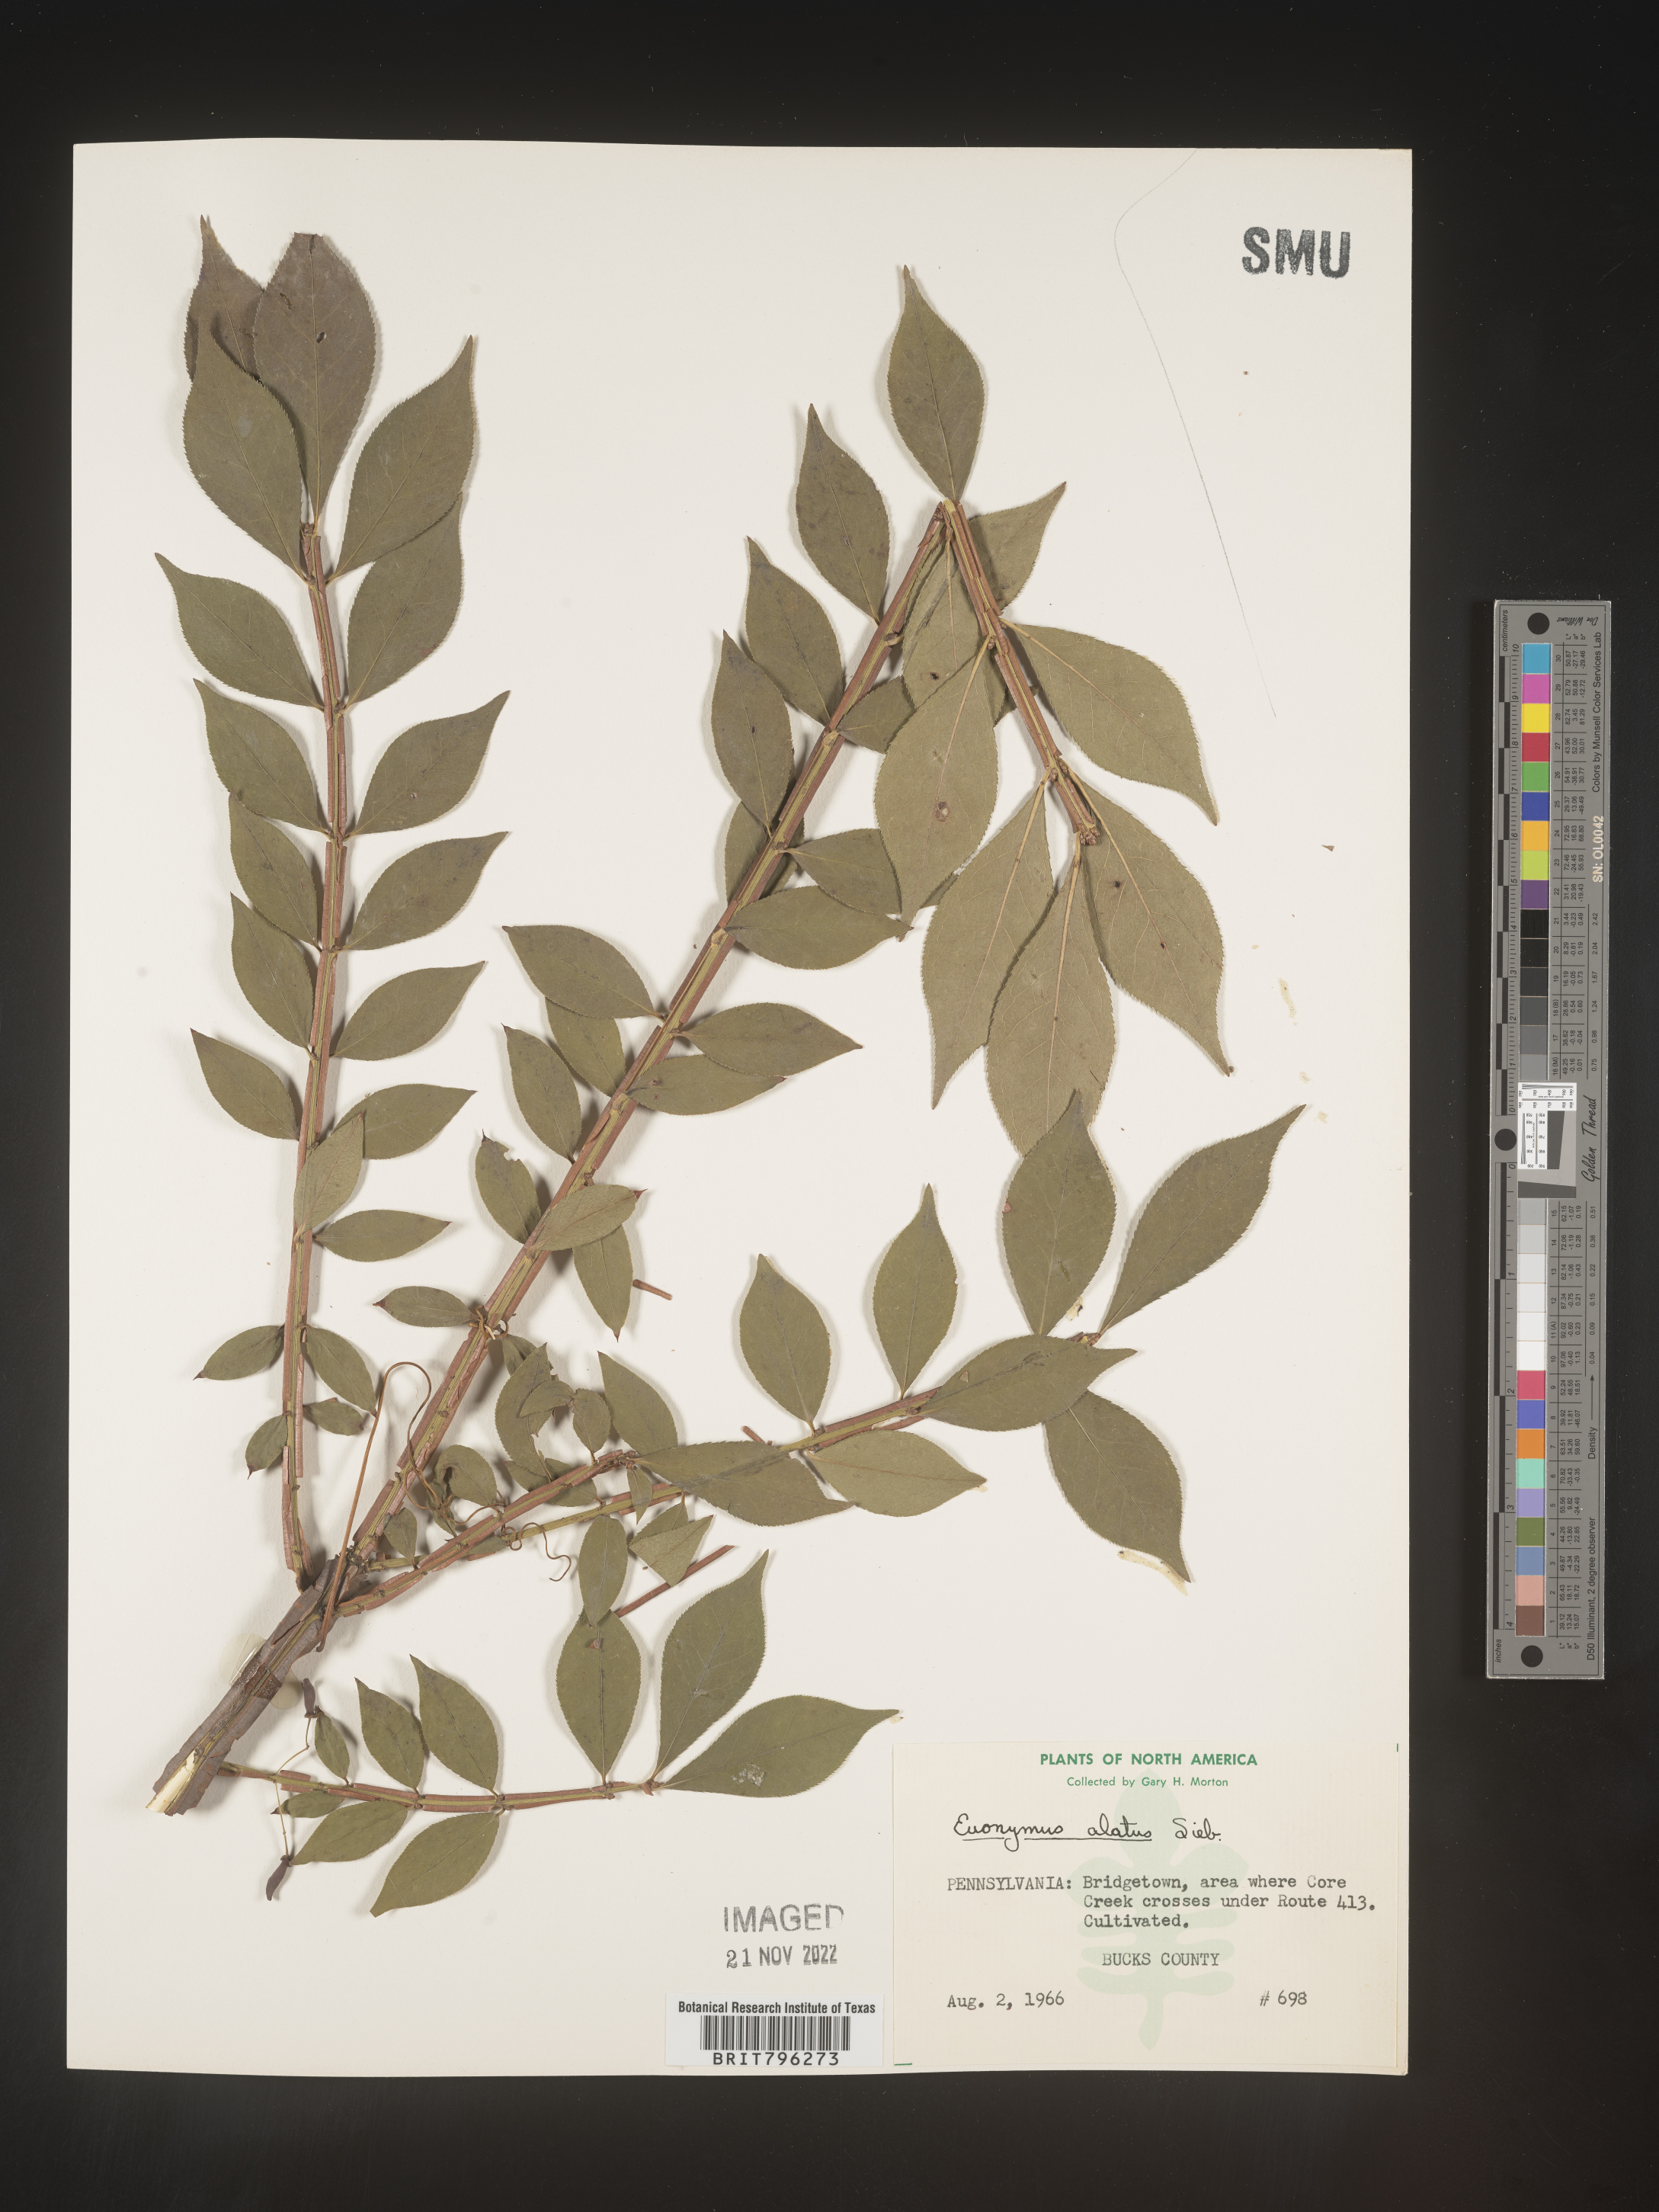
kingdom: Plantae
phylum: Tracheophyta
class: Magnoliopsida
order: Celastrales
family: Celastraceae
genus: Euonymus
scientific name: Euonymus
